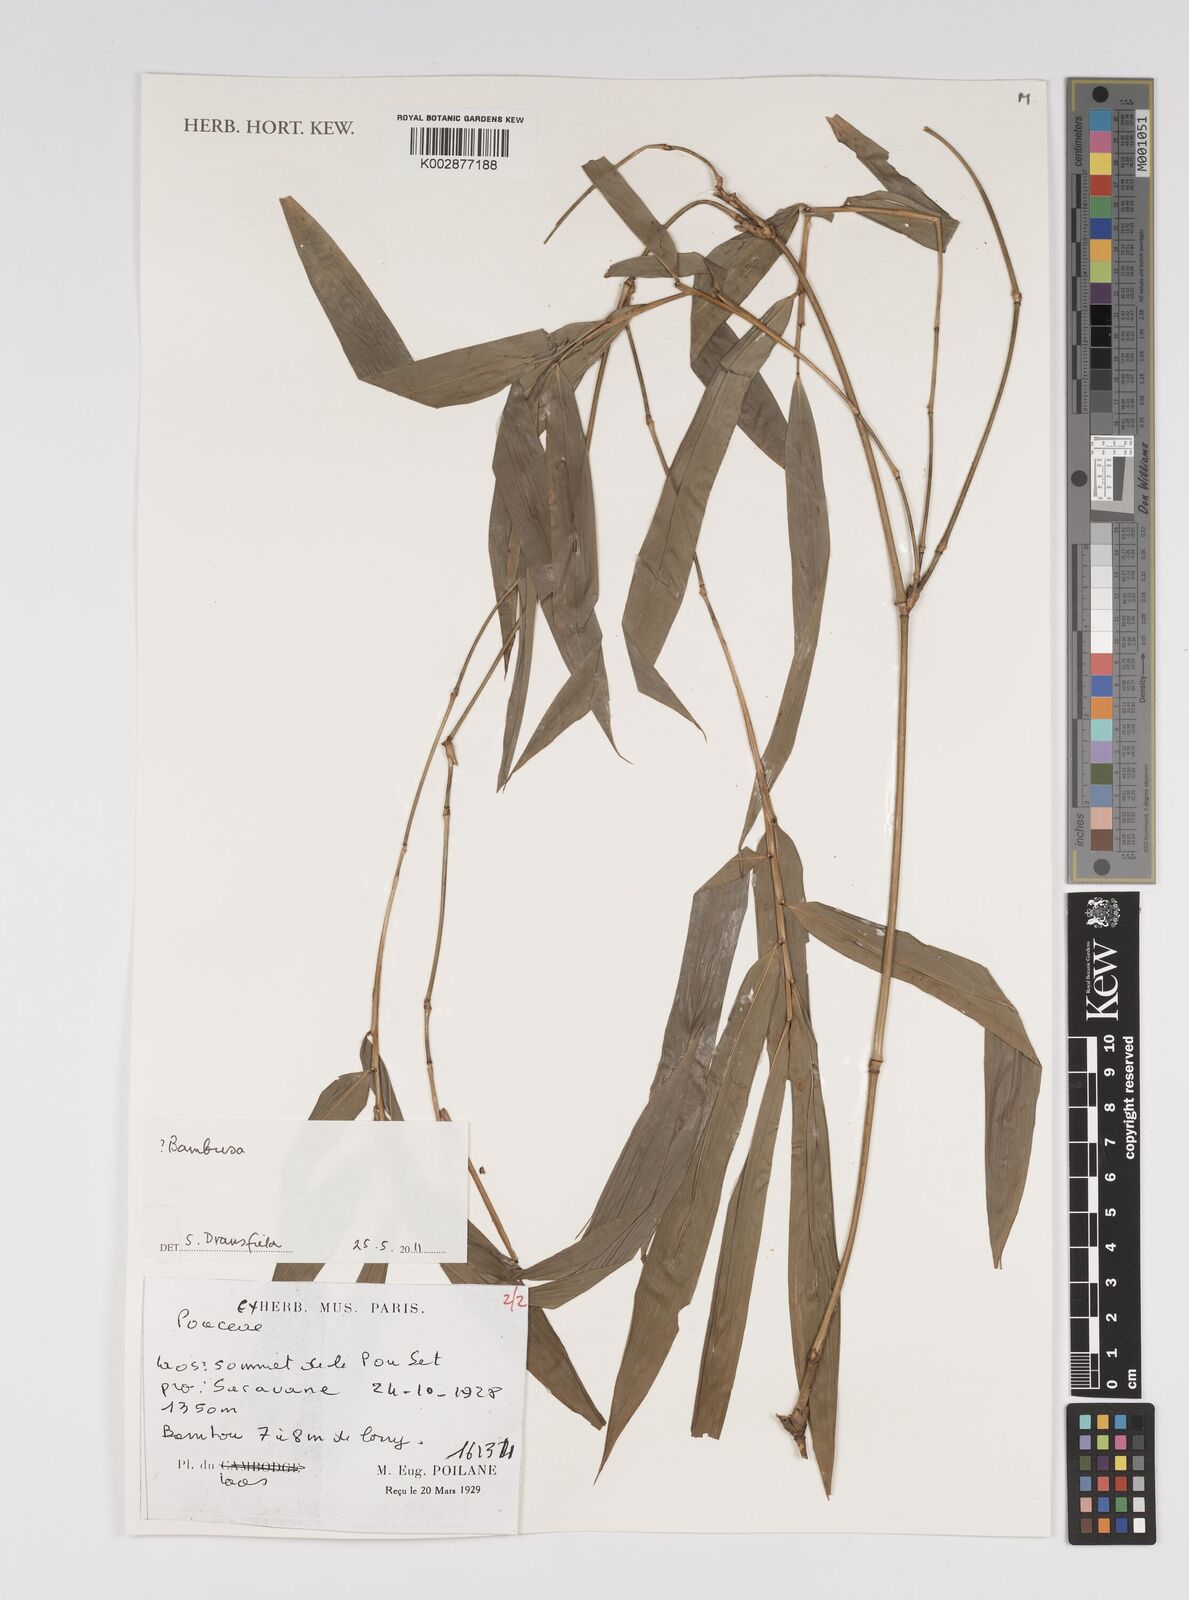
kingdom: Plantae
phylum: Tracheophyta
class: Liliopsida
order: Poales
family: Poaceae
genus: Bambusa
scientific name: Bambusa
